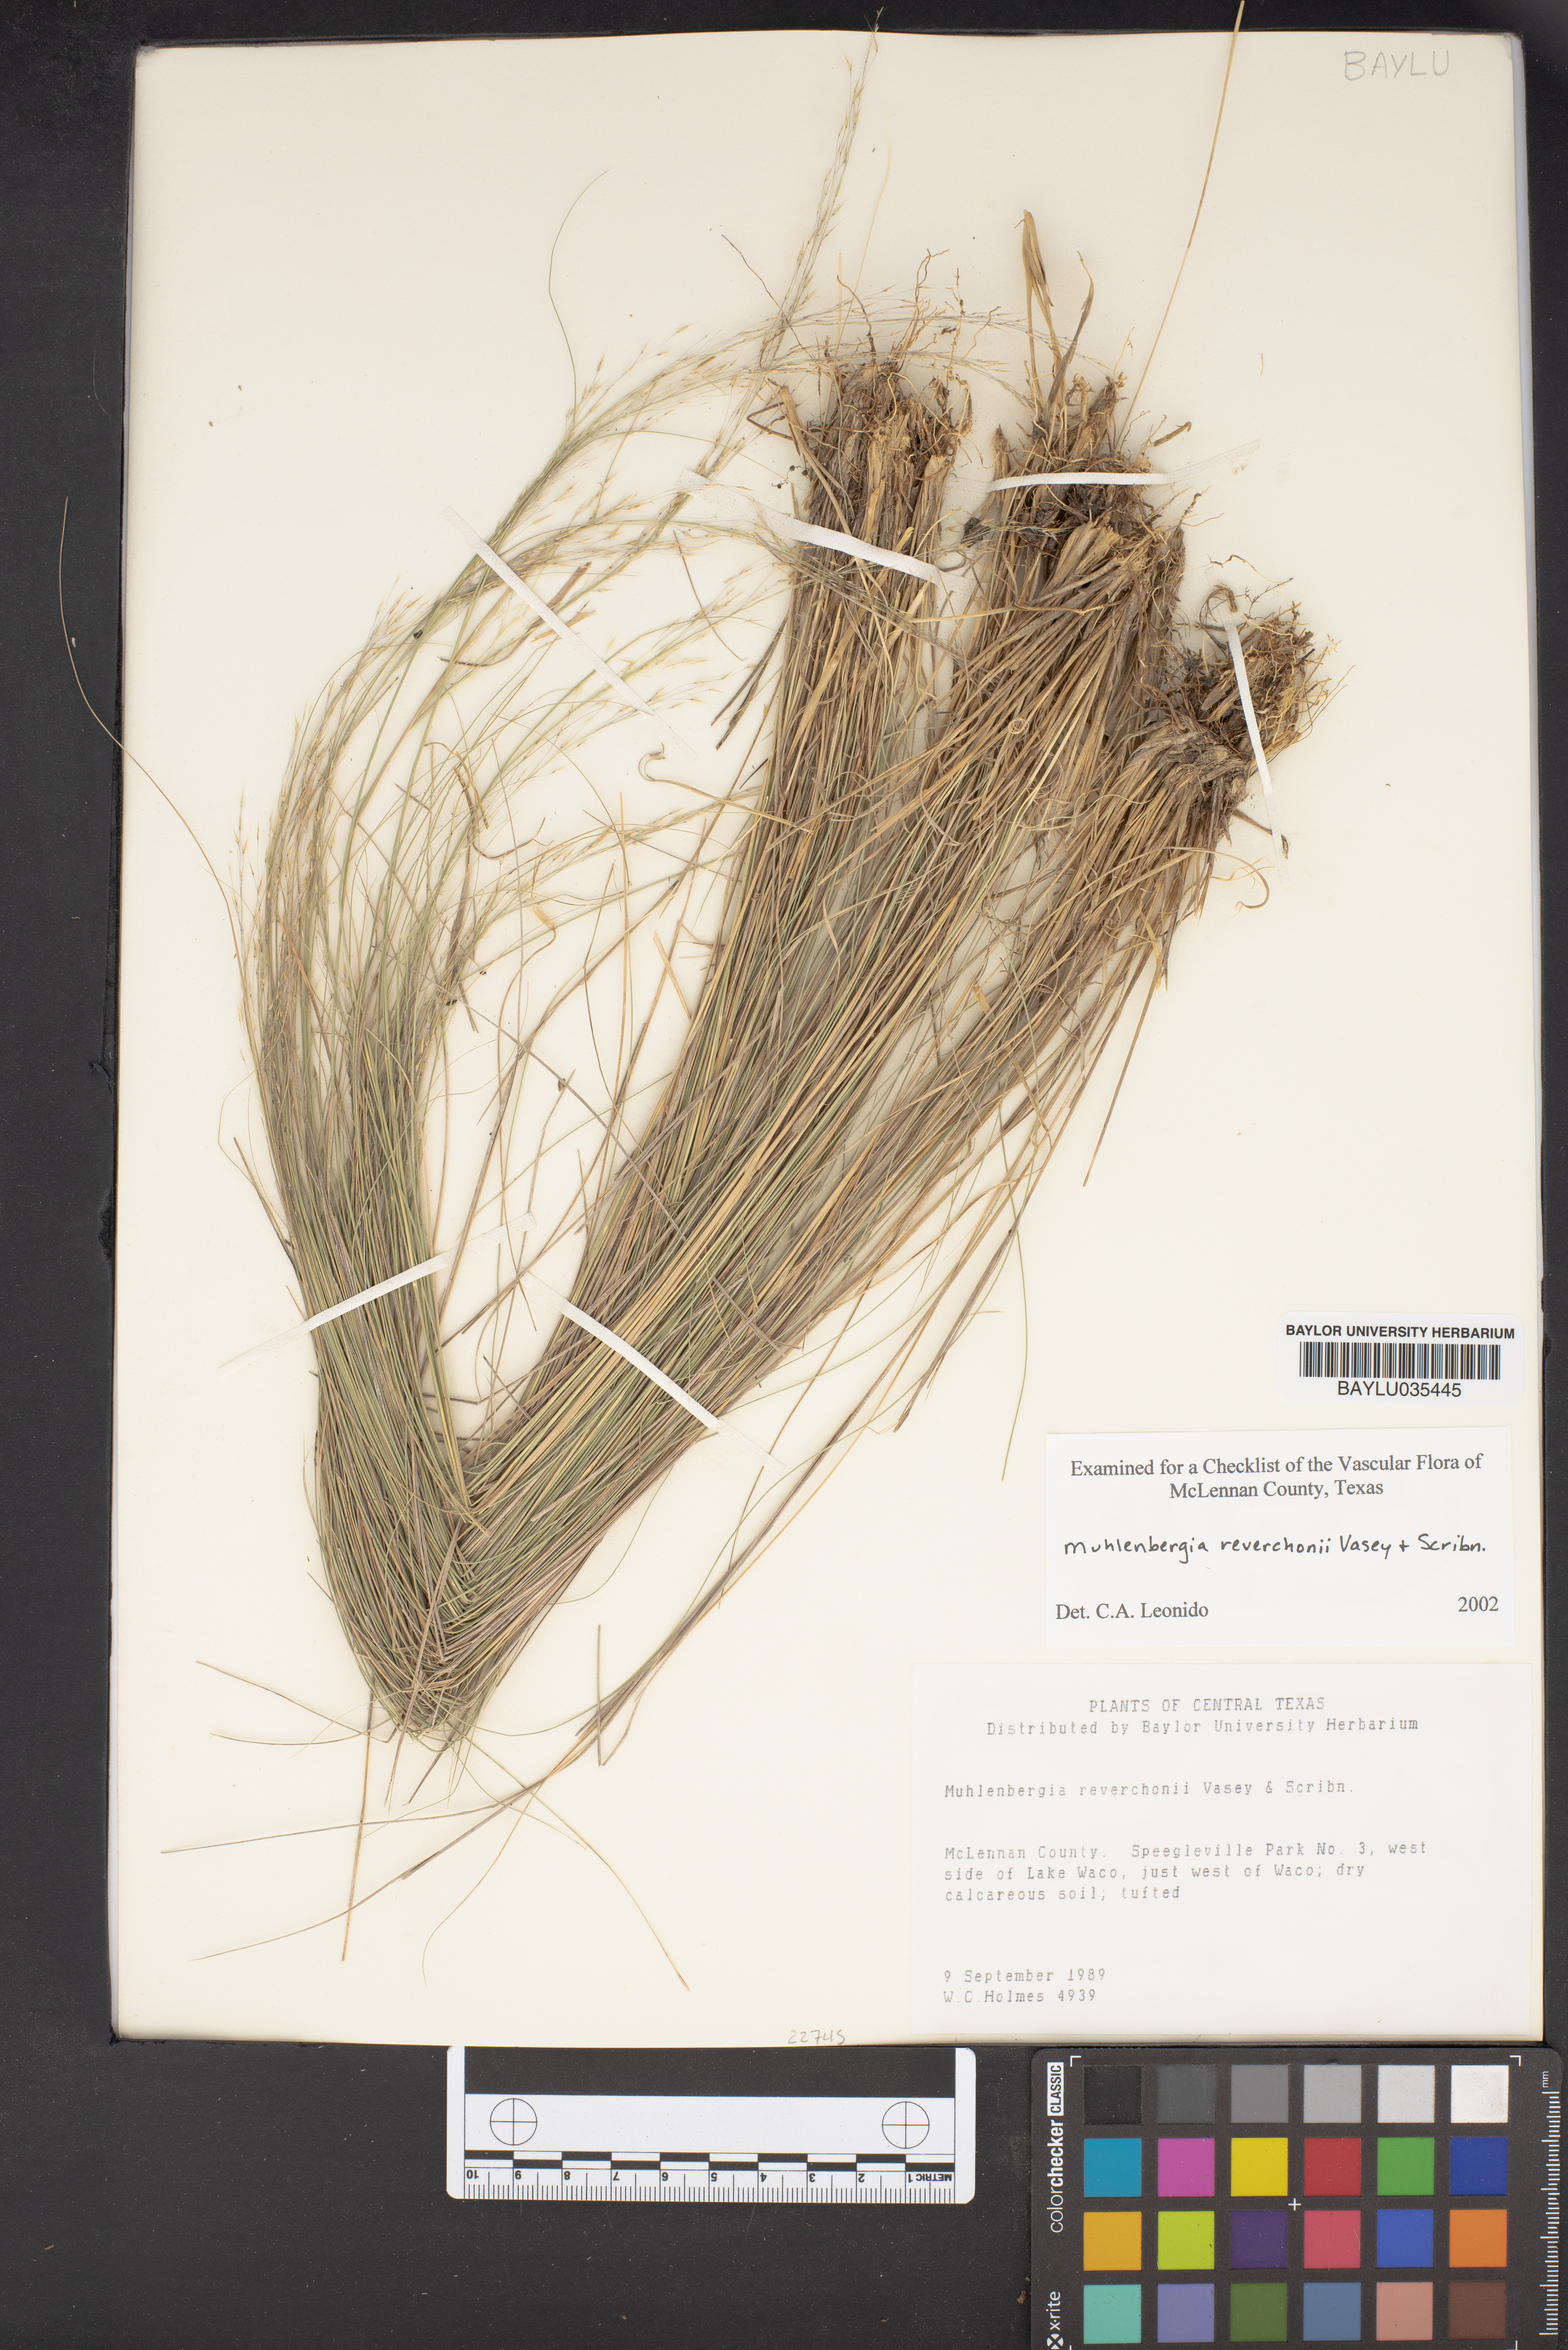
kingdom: Plantae
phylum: Tracheophyta
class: Liliopsida
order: Poales
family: Poaceae
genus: Muhlenbergia
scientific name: Muhlenbergia reverchonii
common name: Seep muhly
